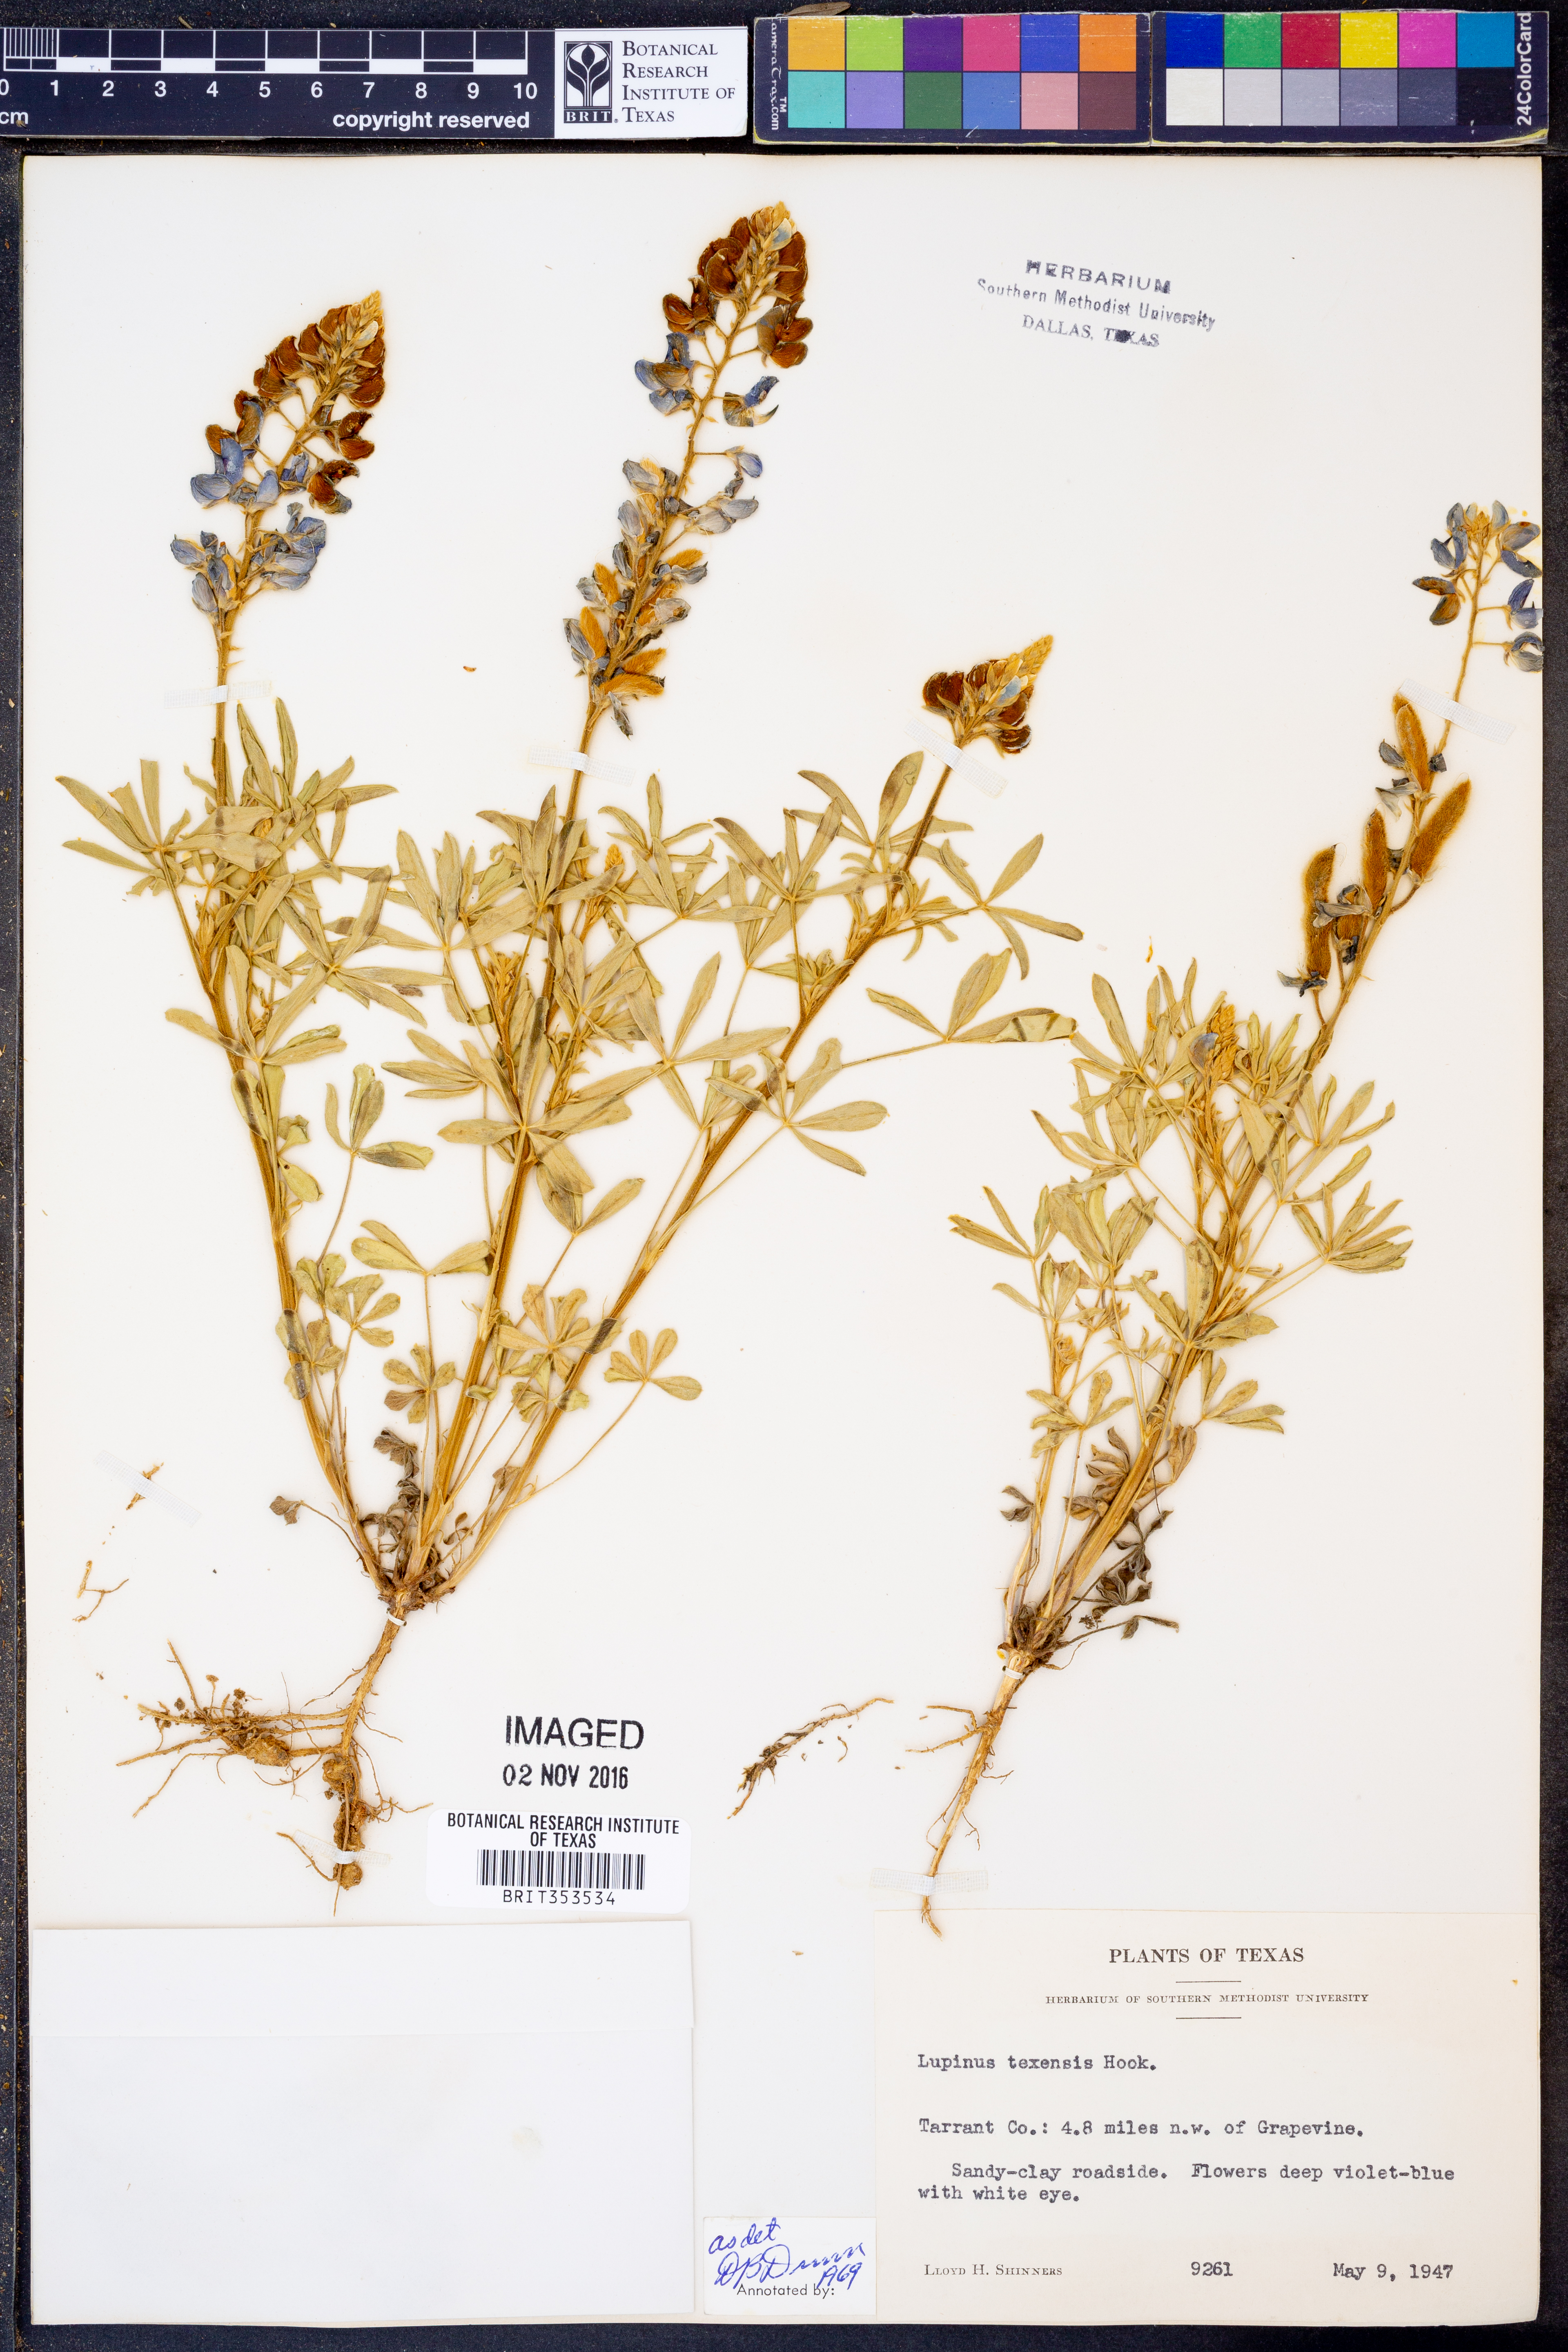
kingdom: Plantae
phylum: Tracheophyta
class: Magnoliopsida
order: Fabales
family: Fabaceae
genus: Lupinus
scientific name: Lupinus texensis
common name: Texas bluebonnet
